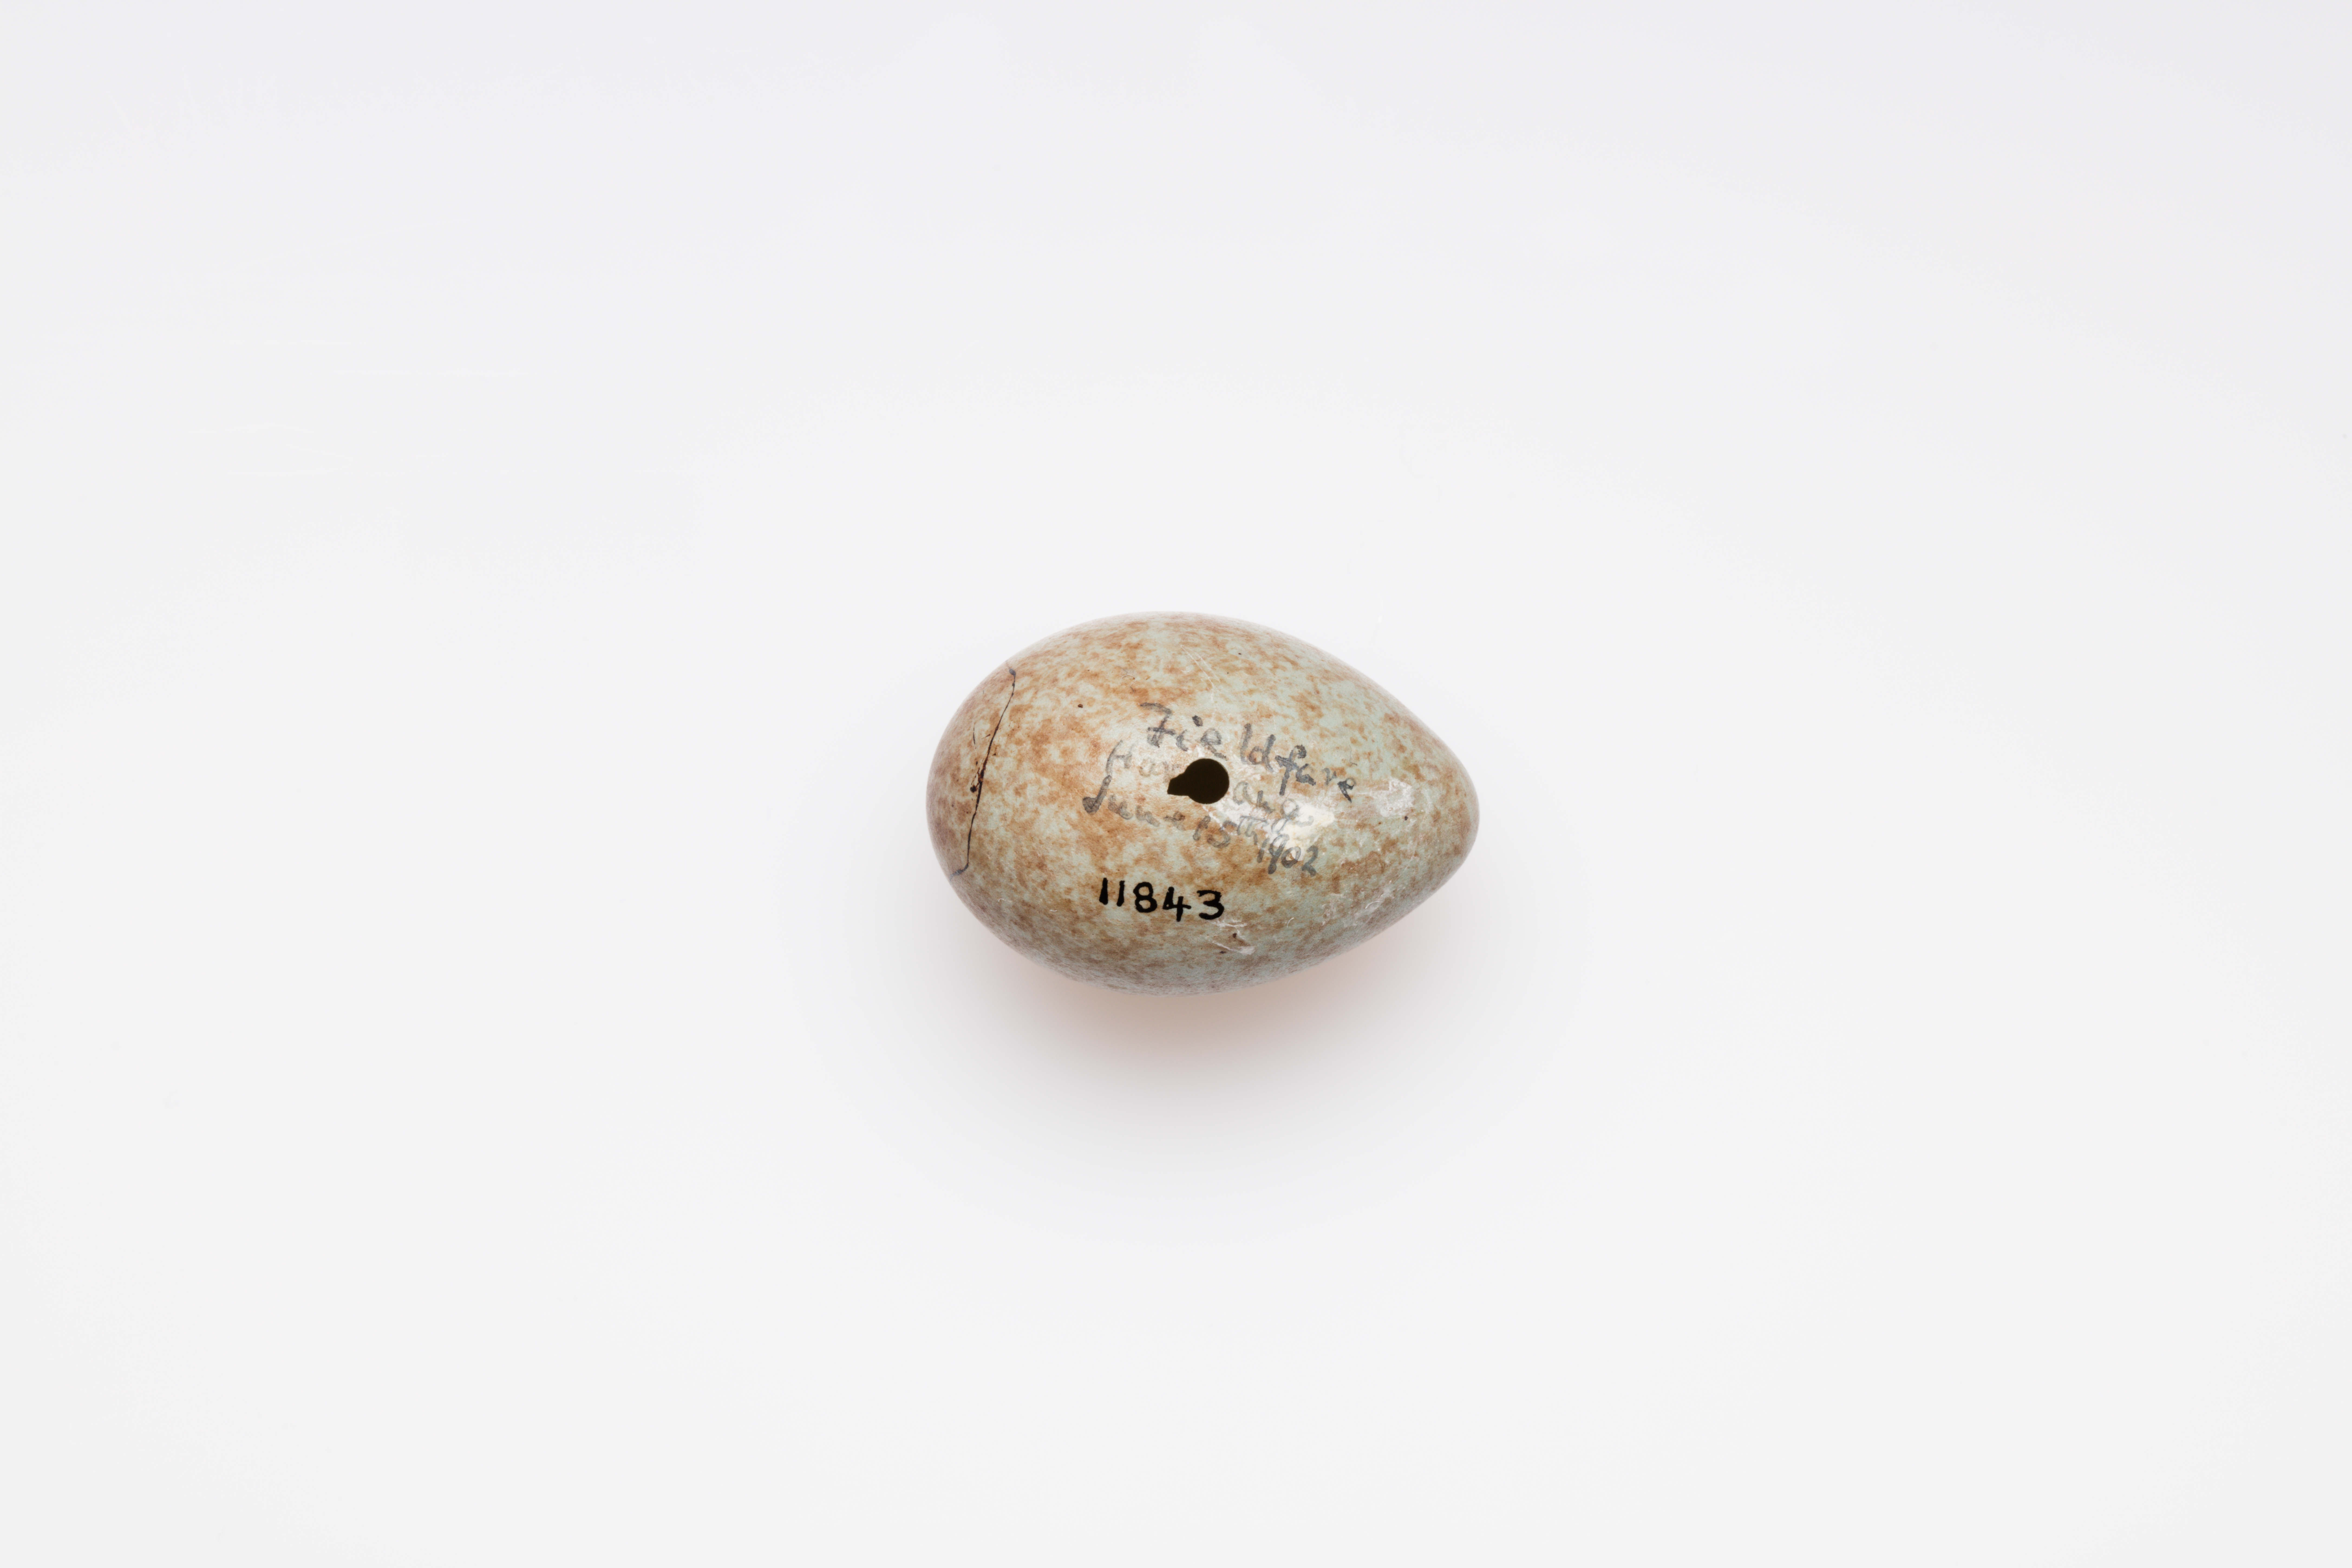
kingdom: Animalia
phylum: Chordata
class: Aves
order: Passeriformes
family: Turdidae
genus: Turdus
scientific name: Turdus pilaris
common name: Fieldfare
